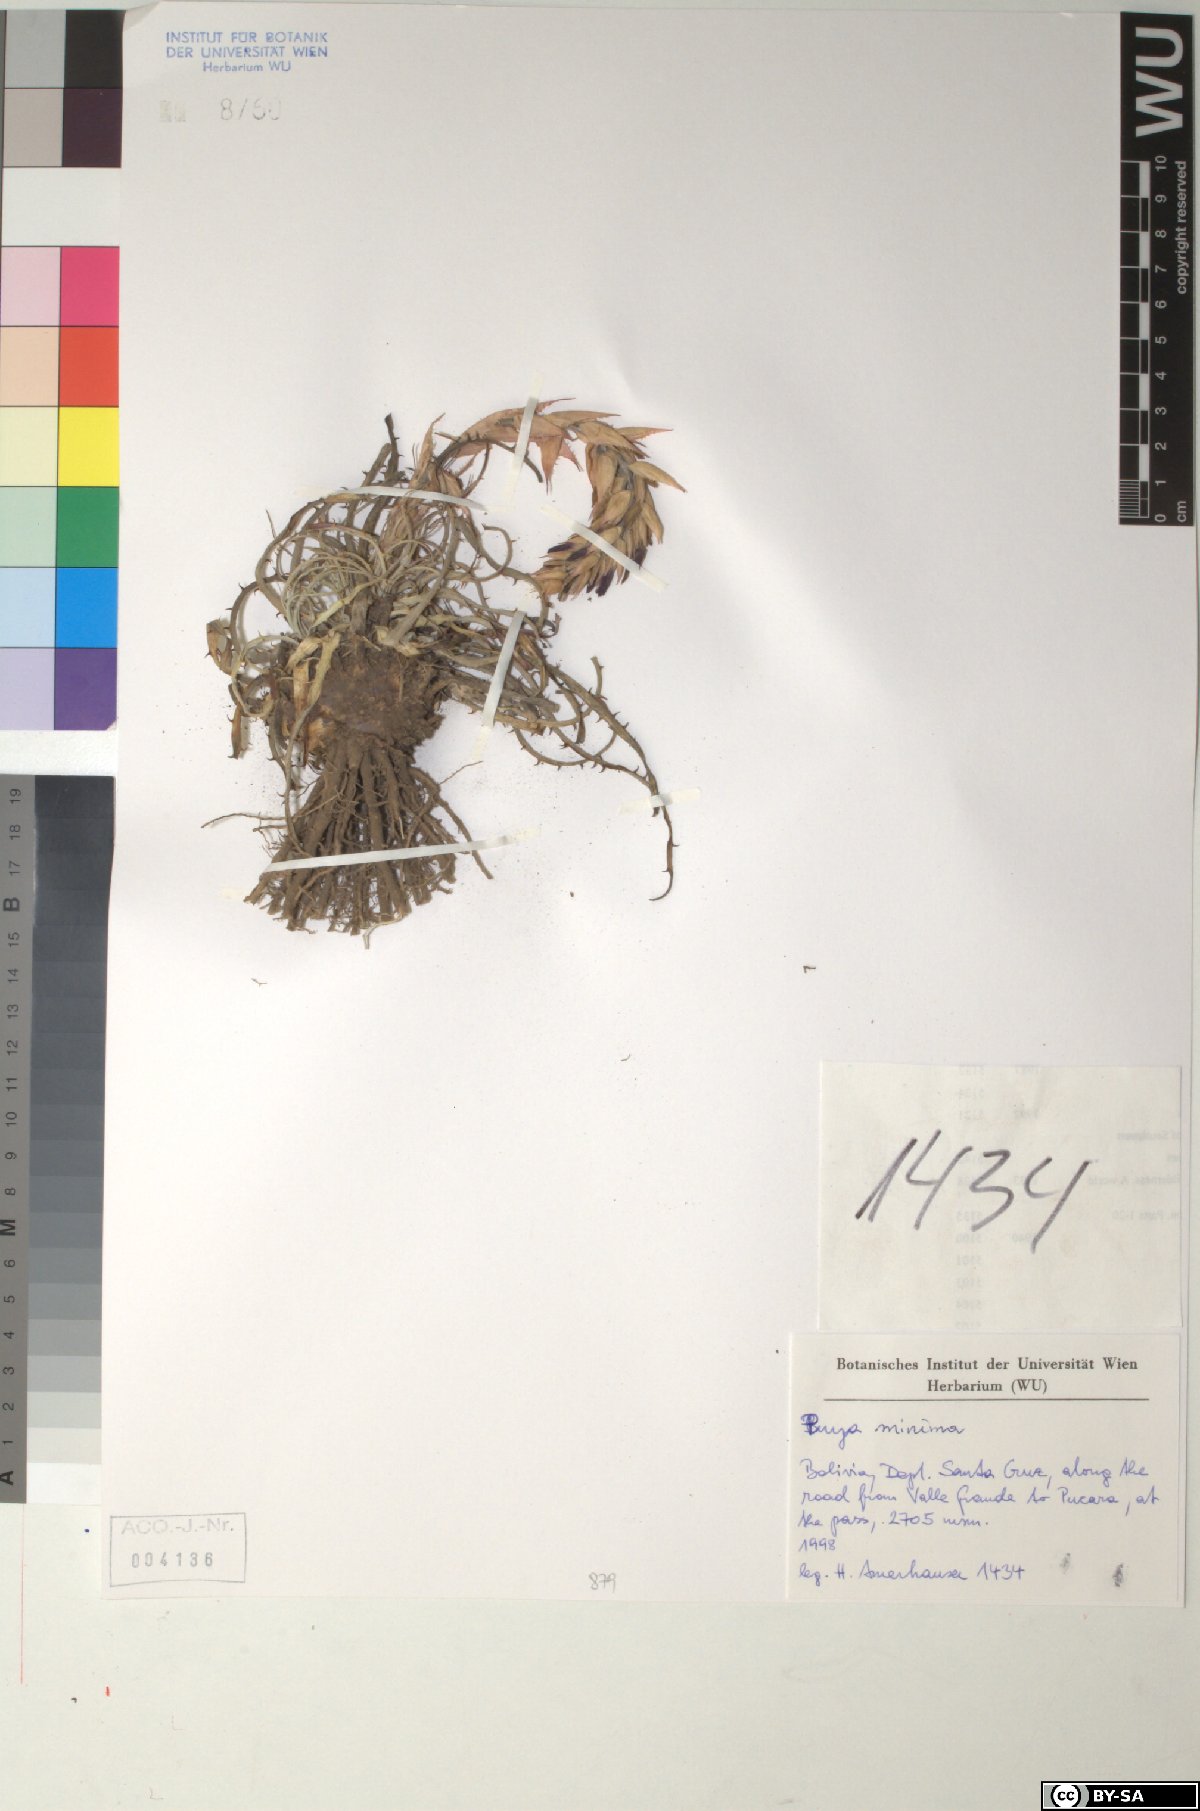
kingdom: Plantae
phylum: Tracheophyta
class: Liliopsida
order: Poales
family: Bromeliaceae
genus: Puya
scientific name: Puya minima
